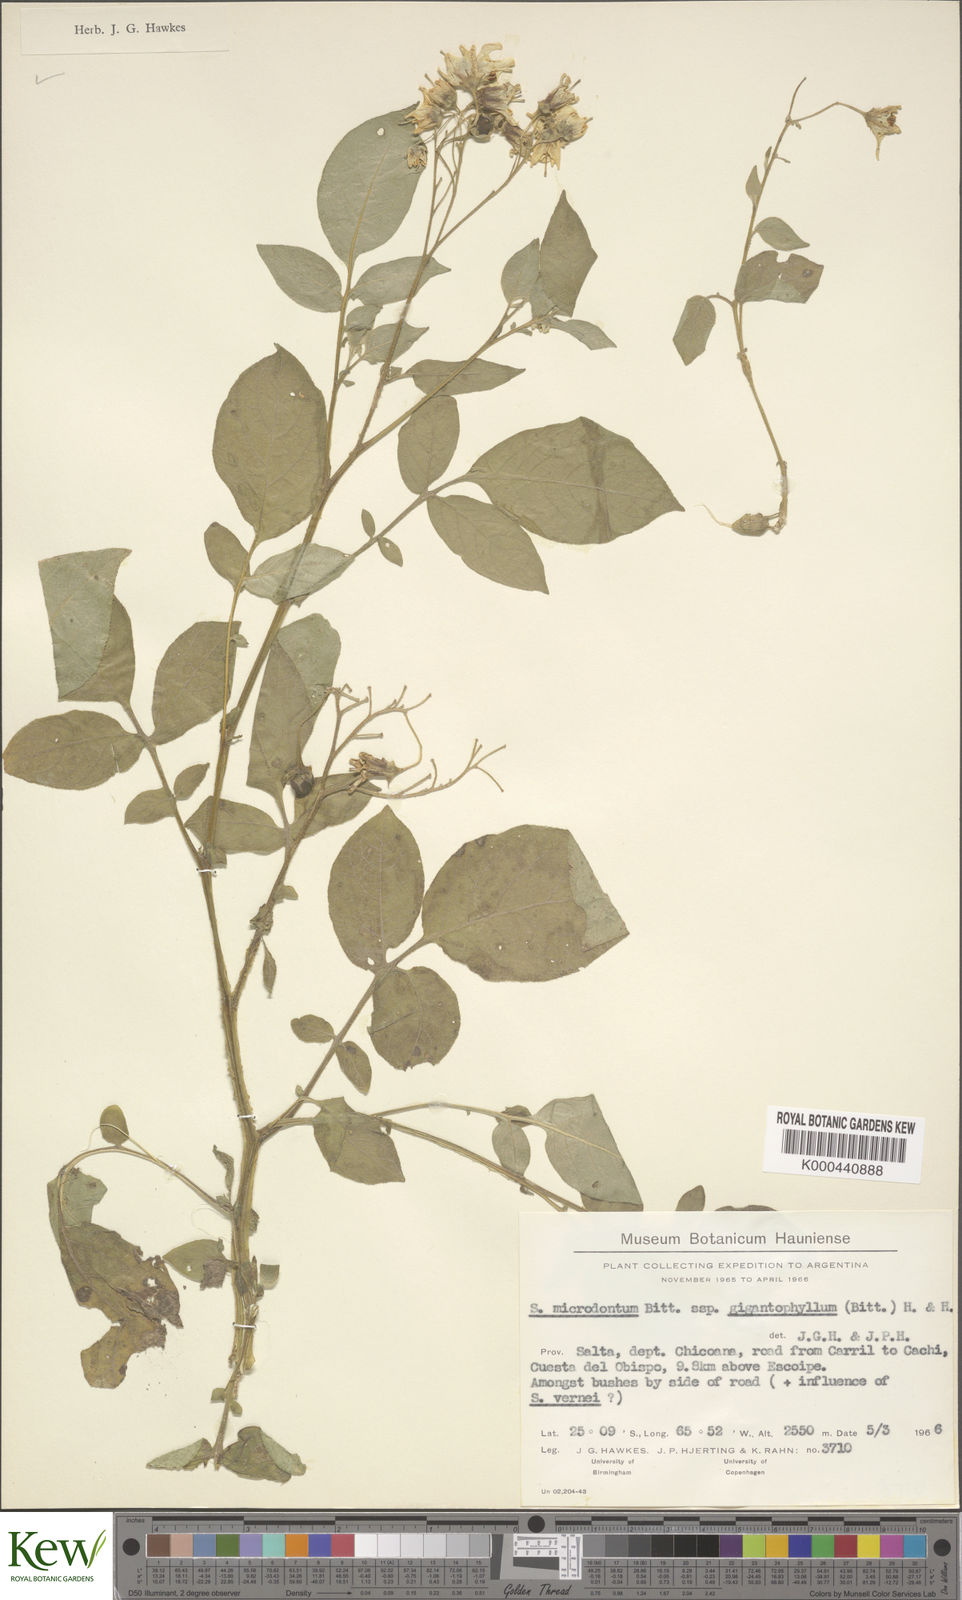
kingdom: Plantae
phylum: Tracheophyta
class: Magnoliopsida
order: Solanales
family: Solanaceae
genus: Solanum
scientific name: Solanum microdontum
